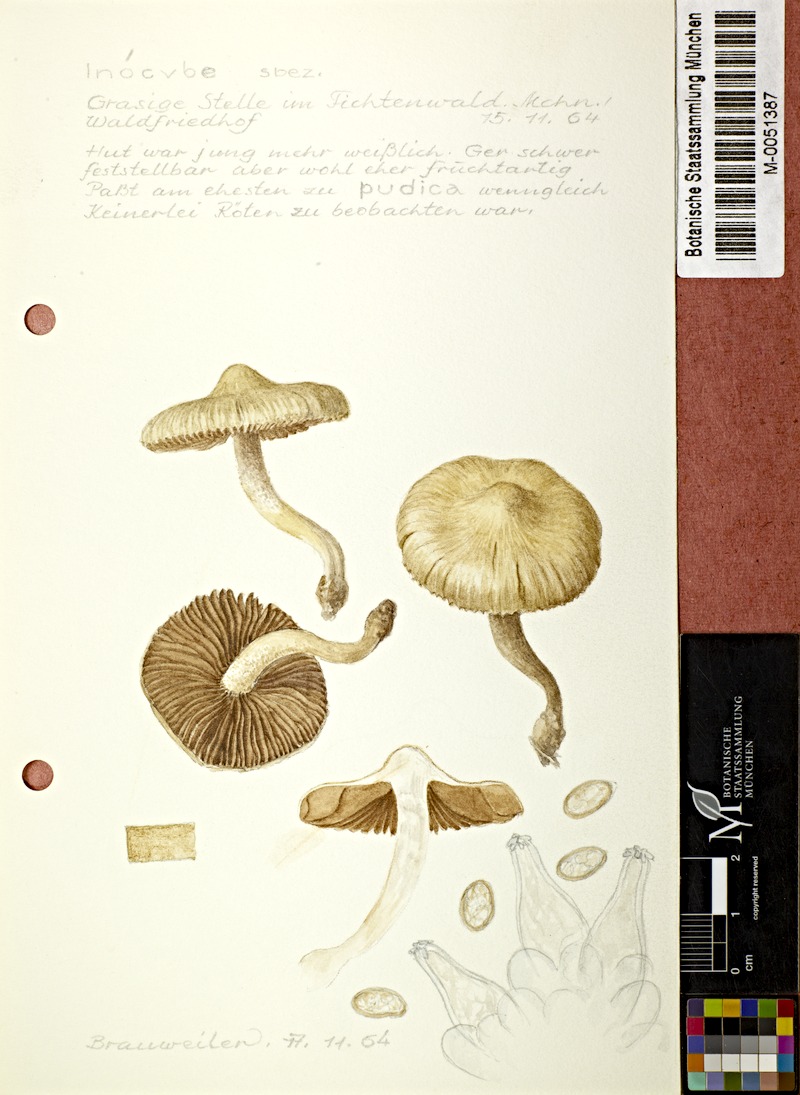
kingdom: Fungi
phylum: Basidiomycota
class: Agaricomycetes
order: Agaricales
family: Inocybaceae
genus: Inocybe
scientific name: Inocybe
